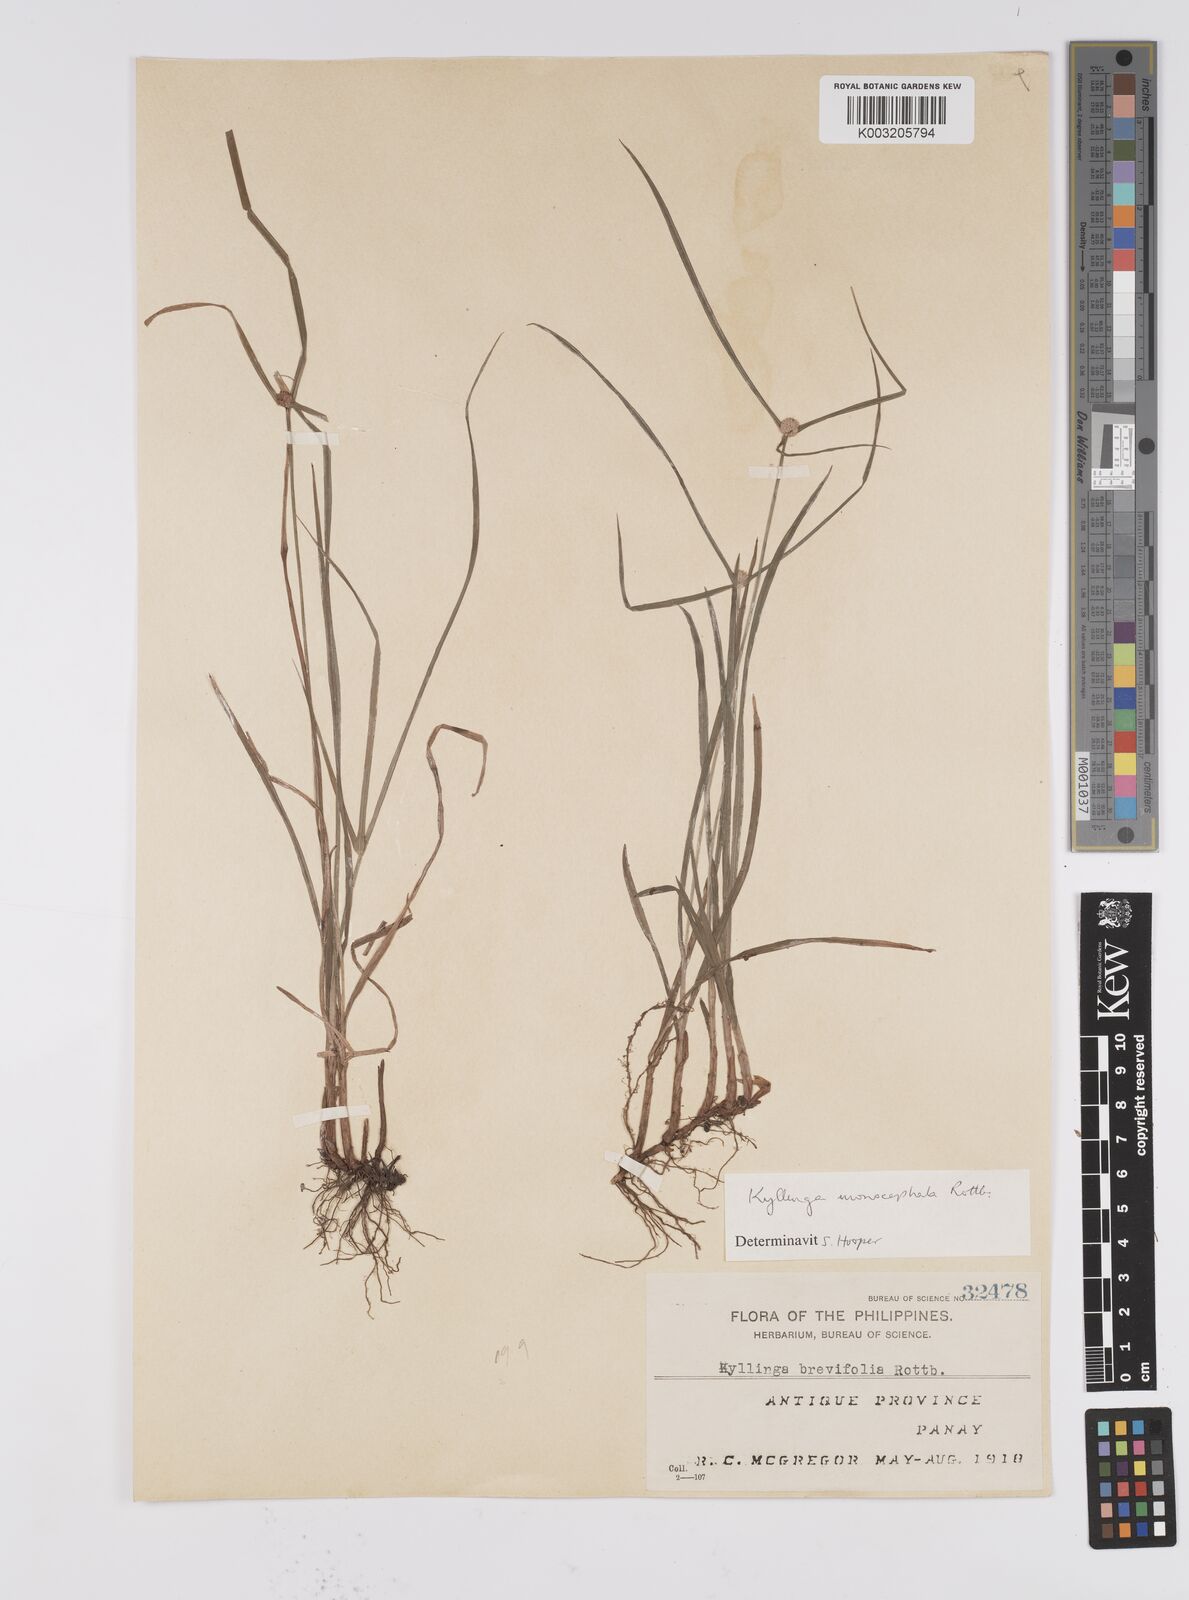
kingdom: Plantae
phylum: Tracheophyta
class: Liliopsida
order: Poales
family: Cyperaceae
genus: Cyperus
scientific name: Cyperus nemoralis
